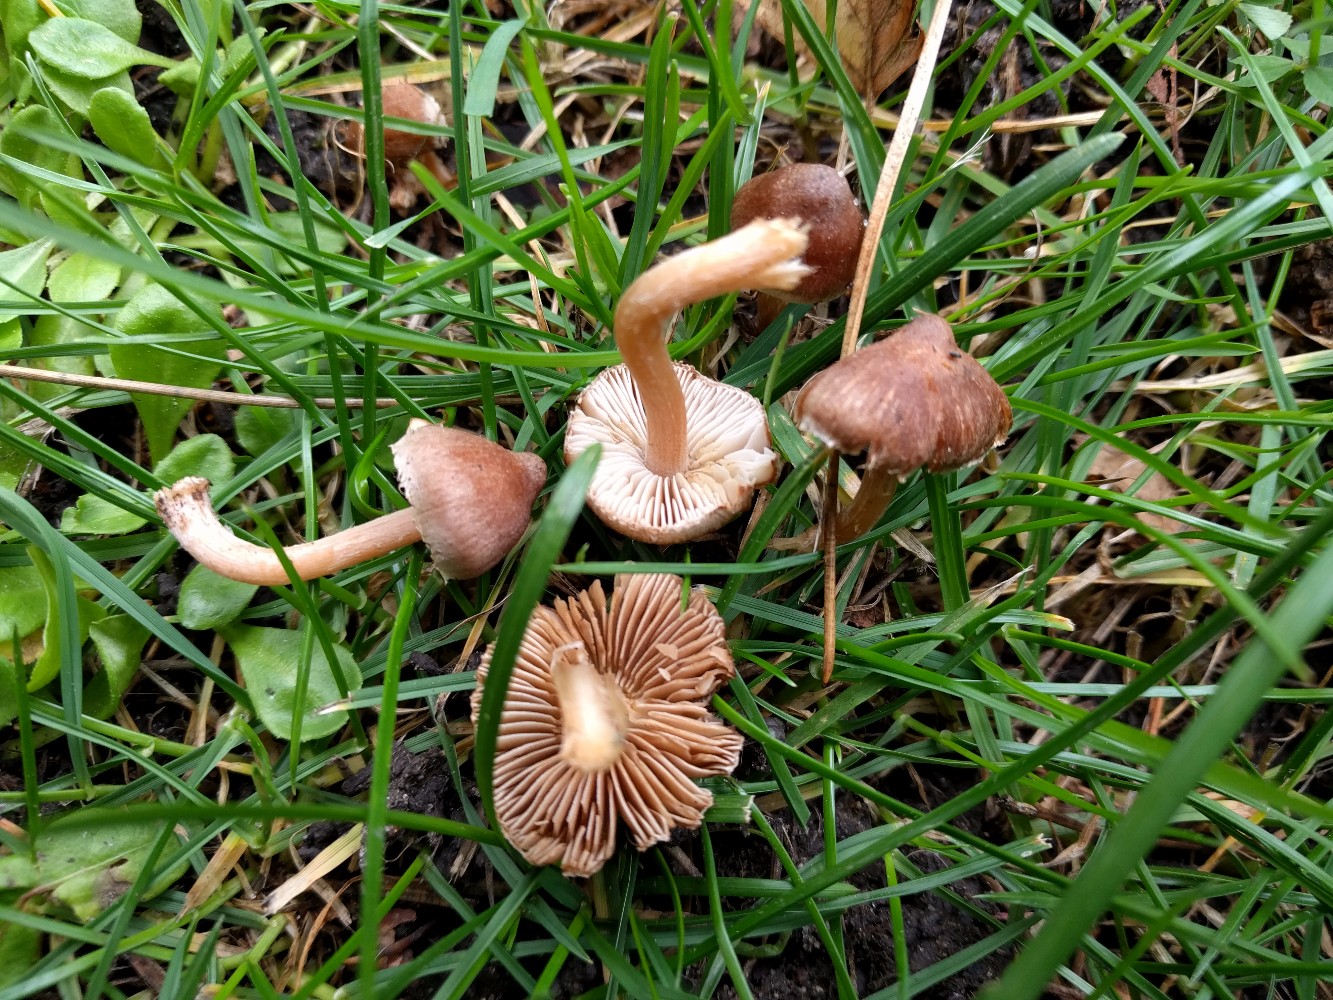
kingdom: Fungi
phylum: Basidiomycota
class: Agaricomycetes
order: Agaricales
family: Inocybaceae
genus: Inocybe
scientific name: Inocybe
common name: trævlhat
